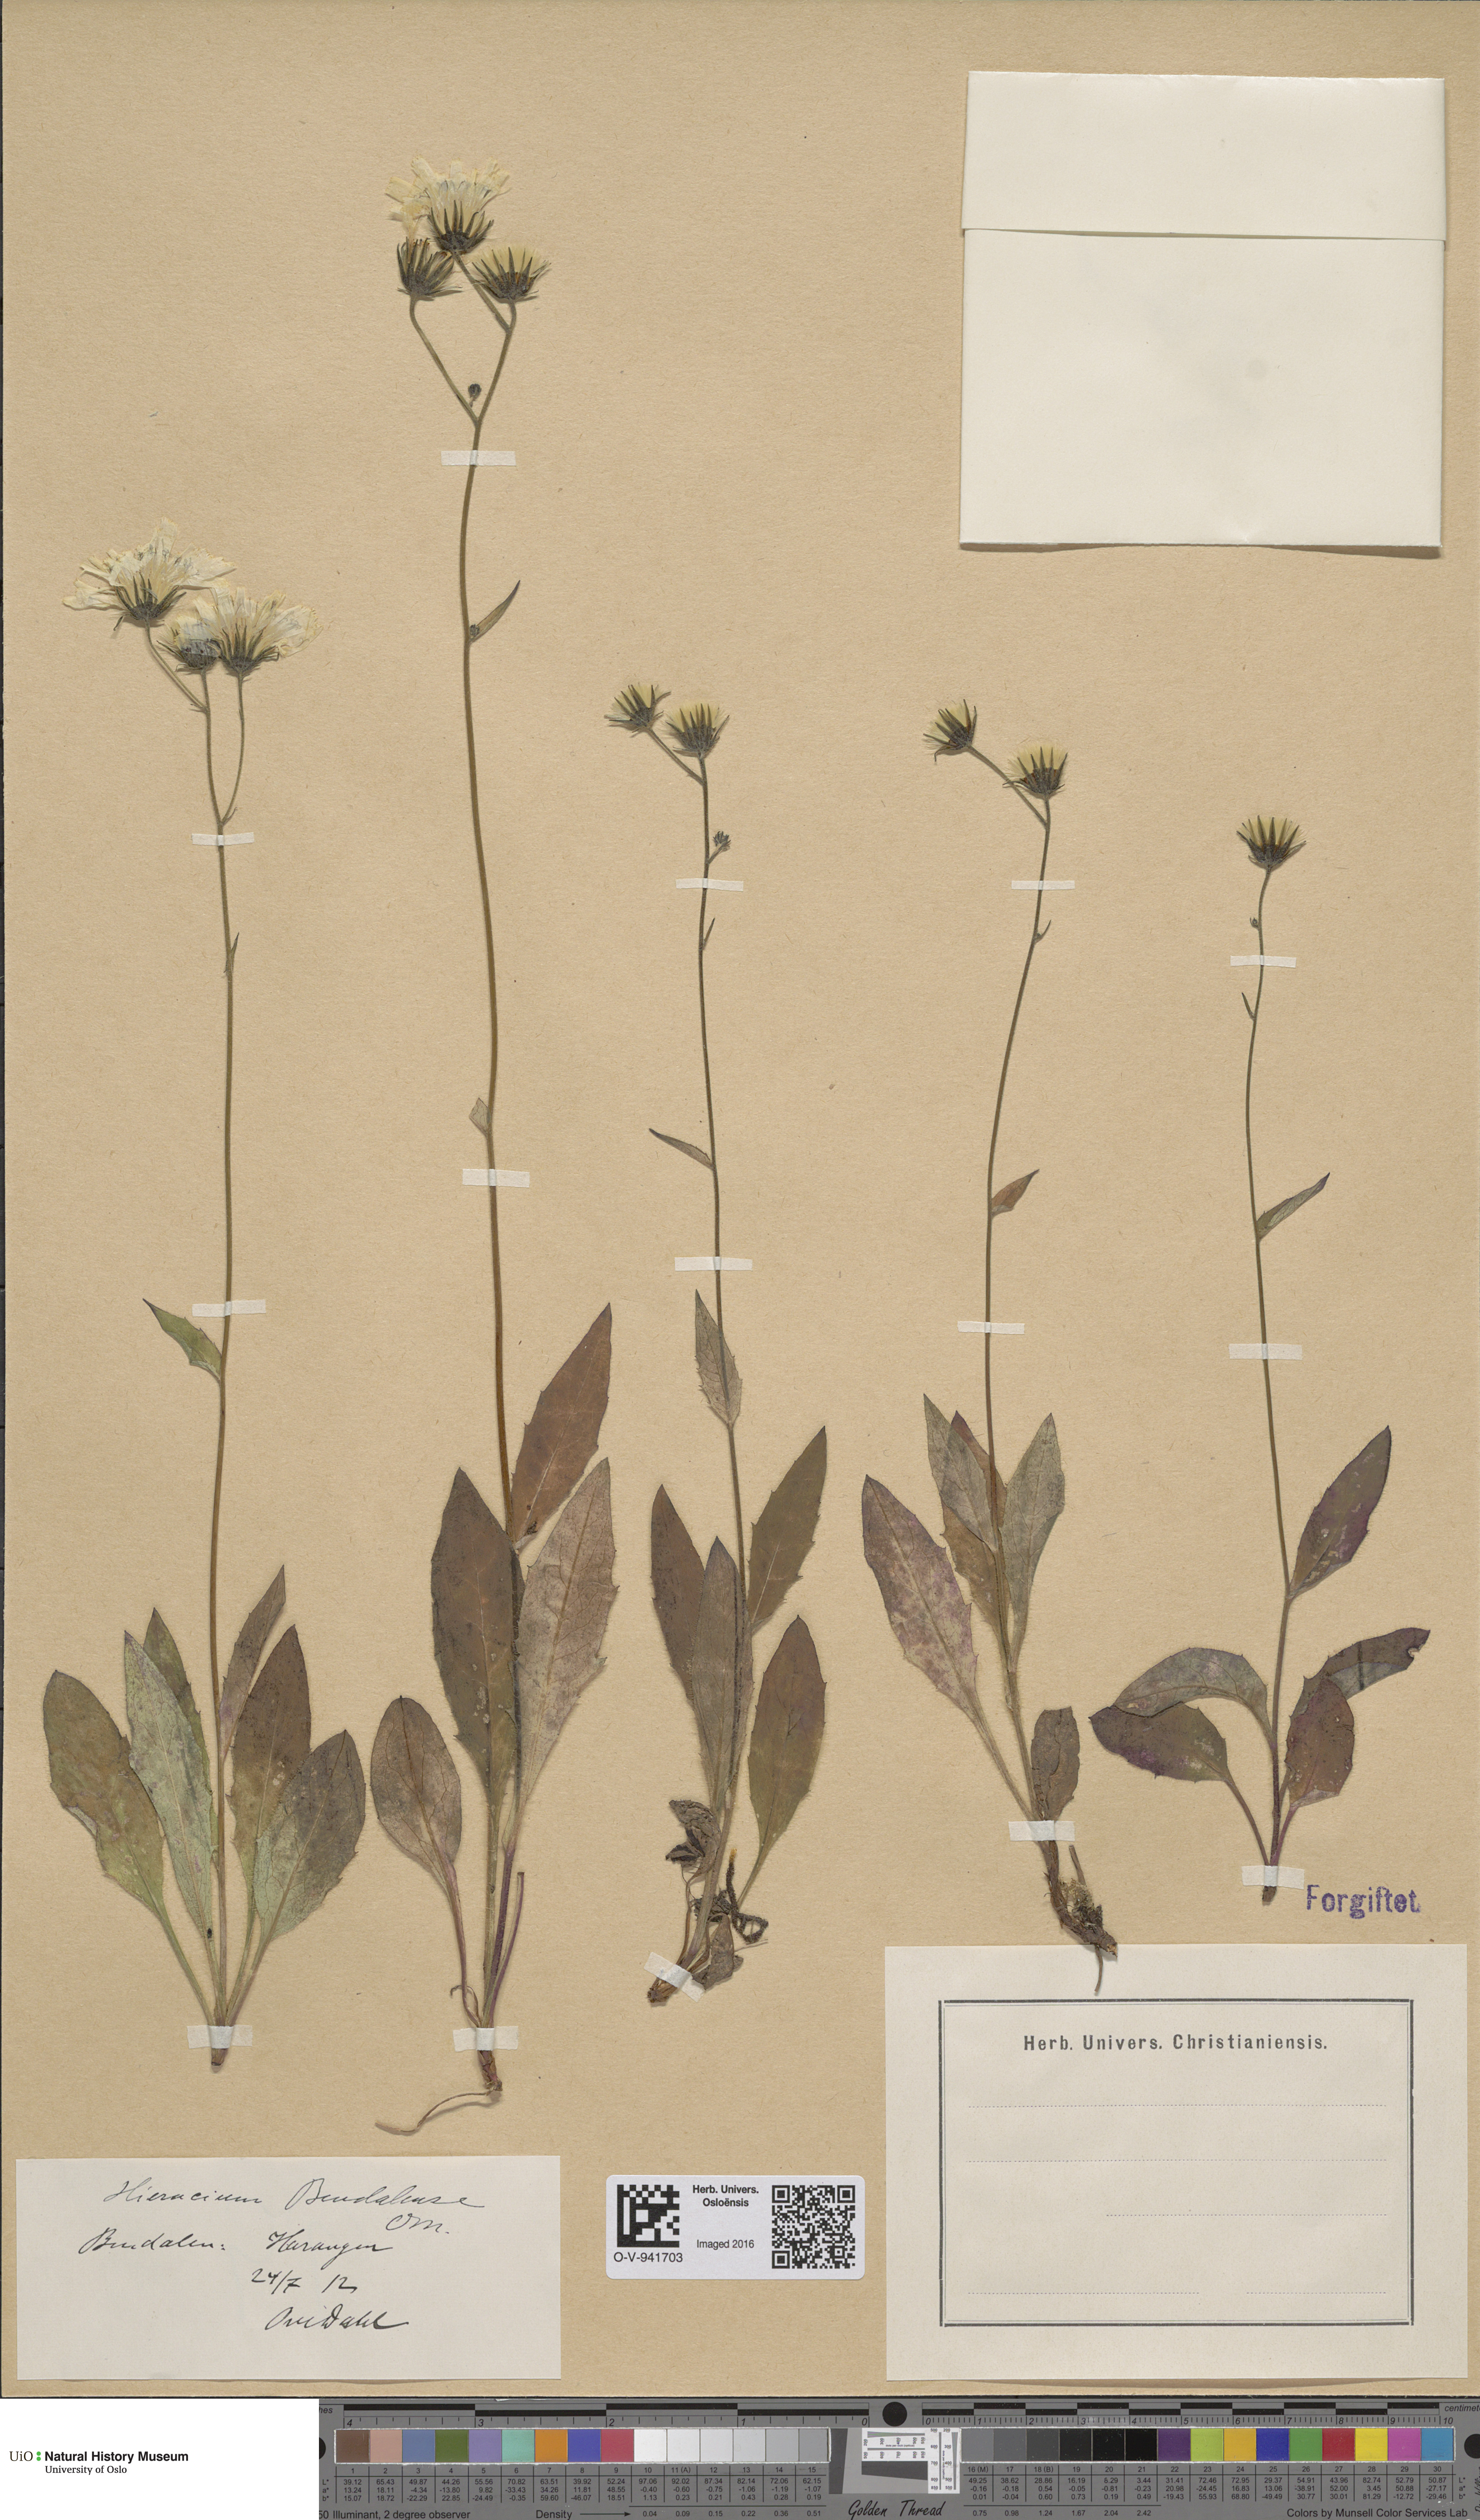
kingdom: Plantae
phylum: Tracheophyta
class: Magnoliopsida
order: Asterales
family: Asteraceae
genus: Hieracium
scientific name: Hieracium bindalense
